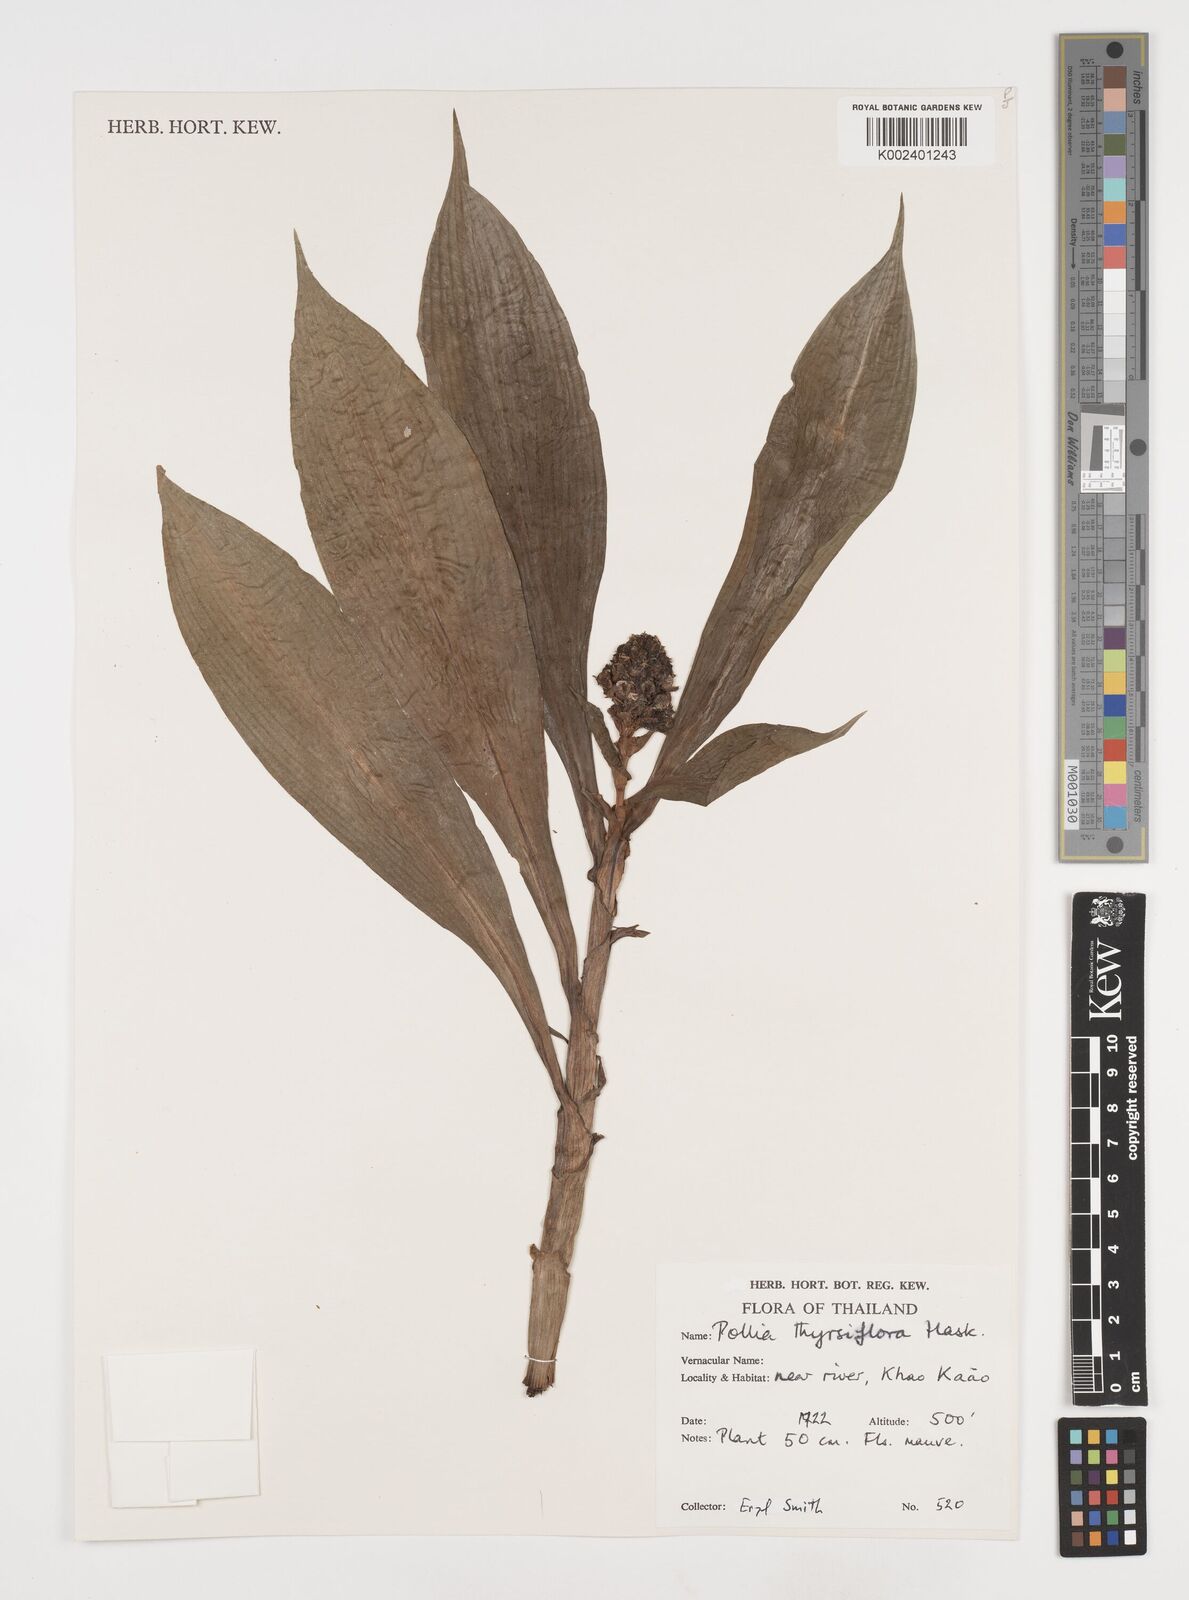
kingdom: Plantae
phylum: Tracheophyta
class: Liliopsida
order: Commelinales
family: Commelinaceae
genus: Pollia
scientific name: Pollia thyrsiflora
